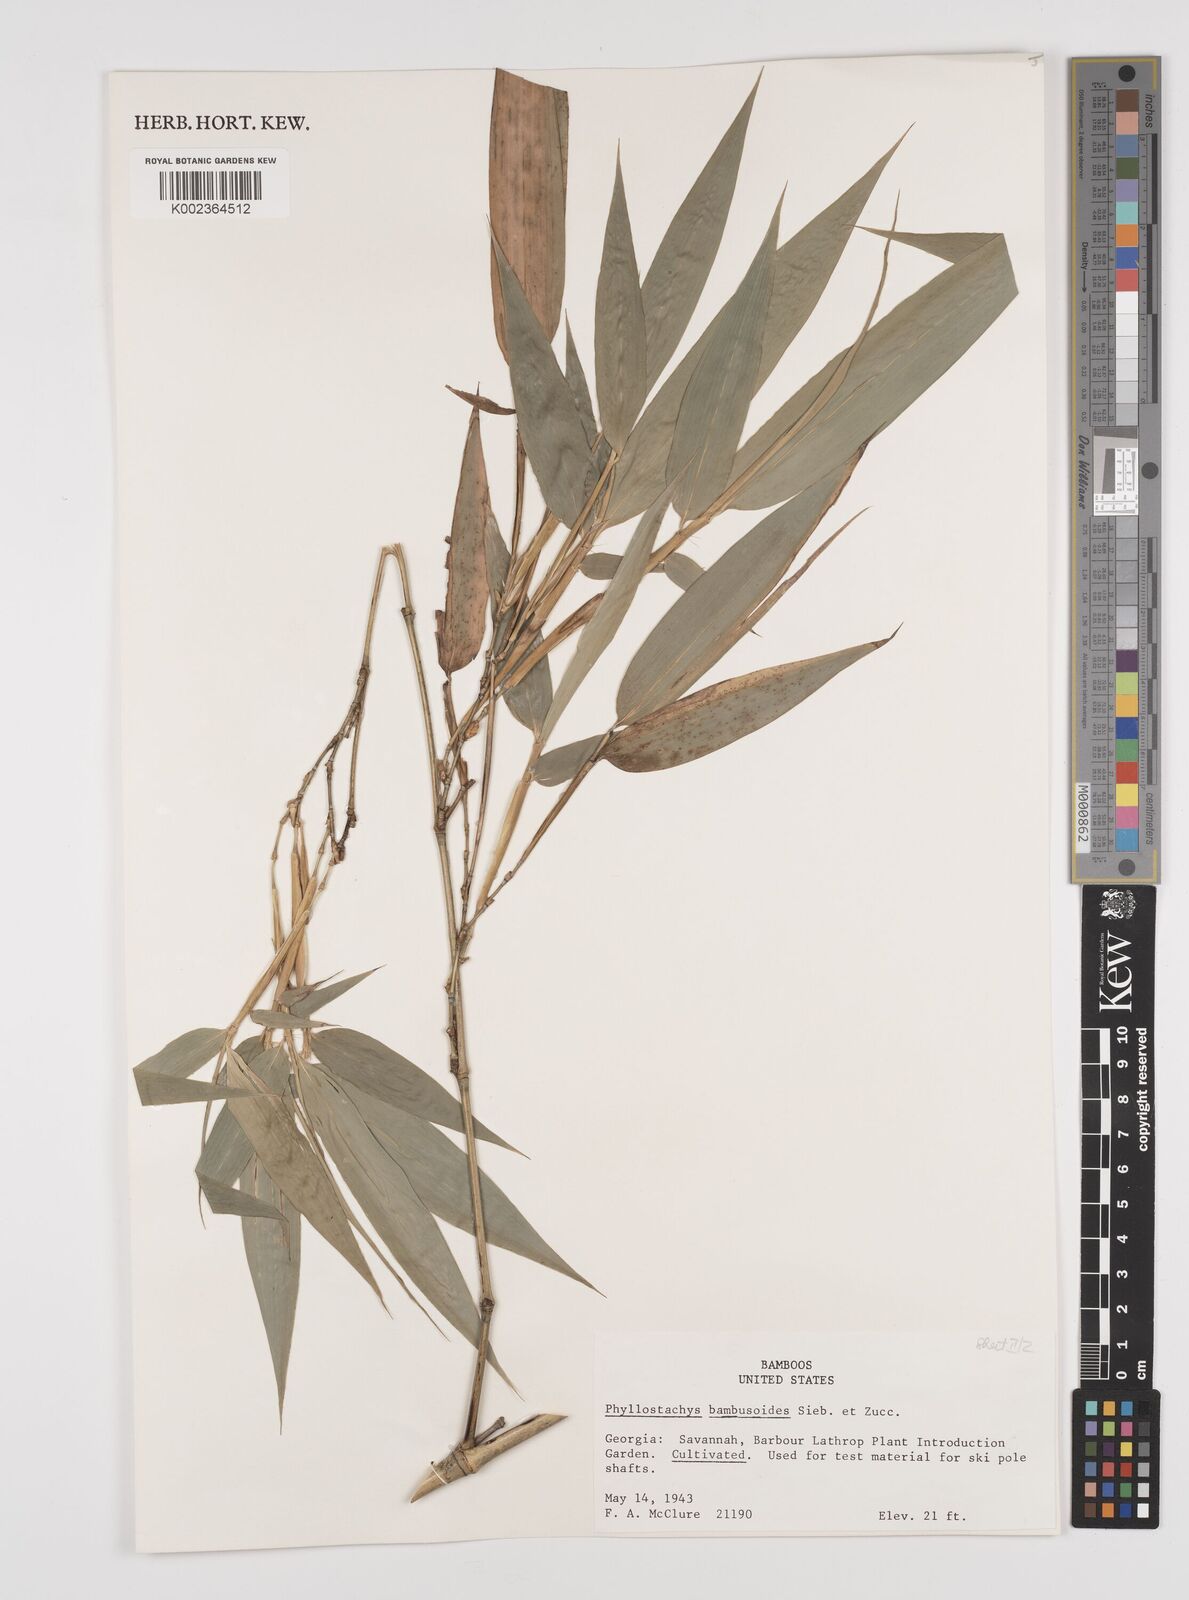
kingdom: Plantae
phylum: Tracheophyta
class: Liliopsida
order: Poales
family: Poaceae
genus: Phyllostachys
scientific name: Phyllostachys reticulata
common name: Bamboo
